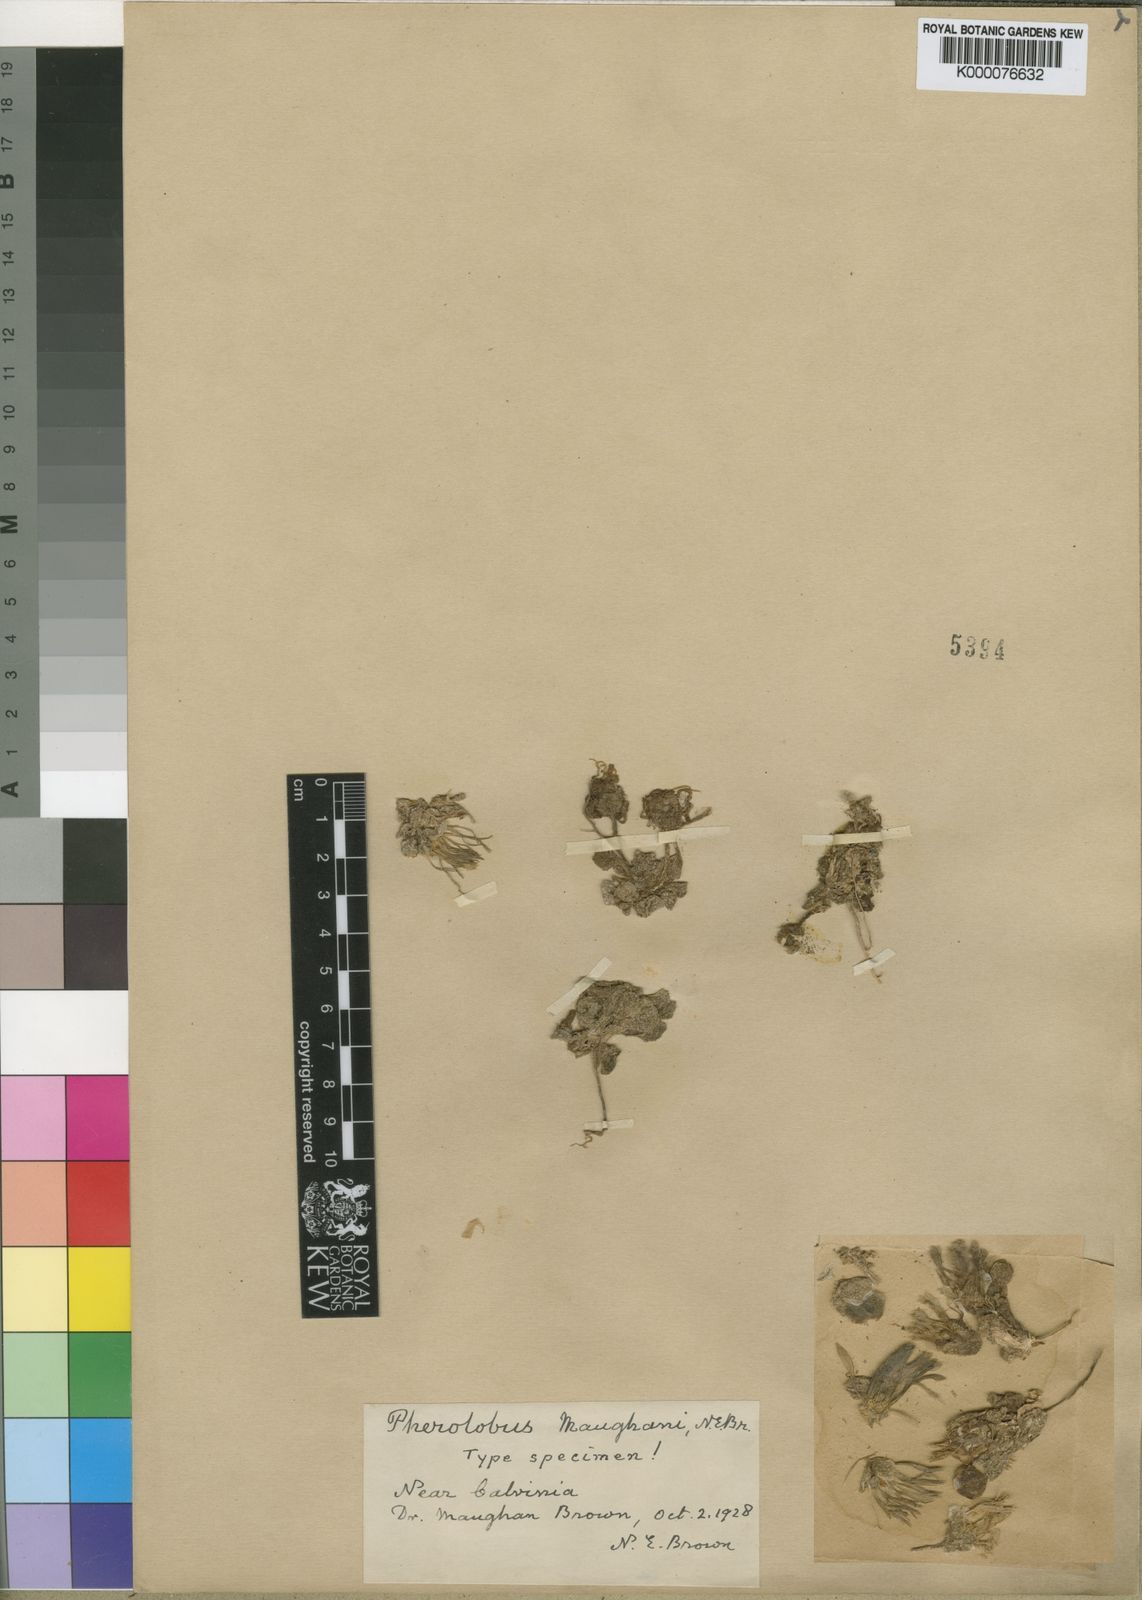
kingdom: Plantae
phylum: Tracheophyta
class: Magnoliopsida
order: Caryophyllales
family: Aizoaceae
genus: Cleretum
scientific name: Cleretum maughanii
